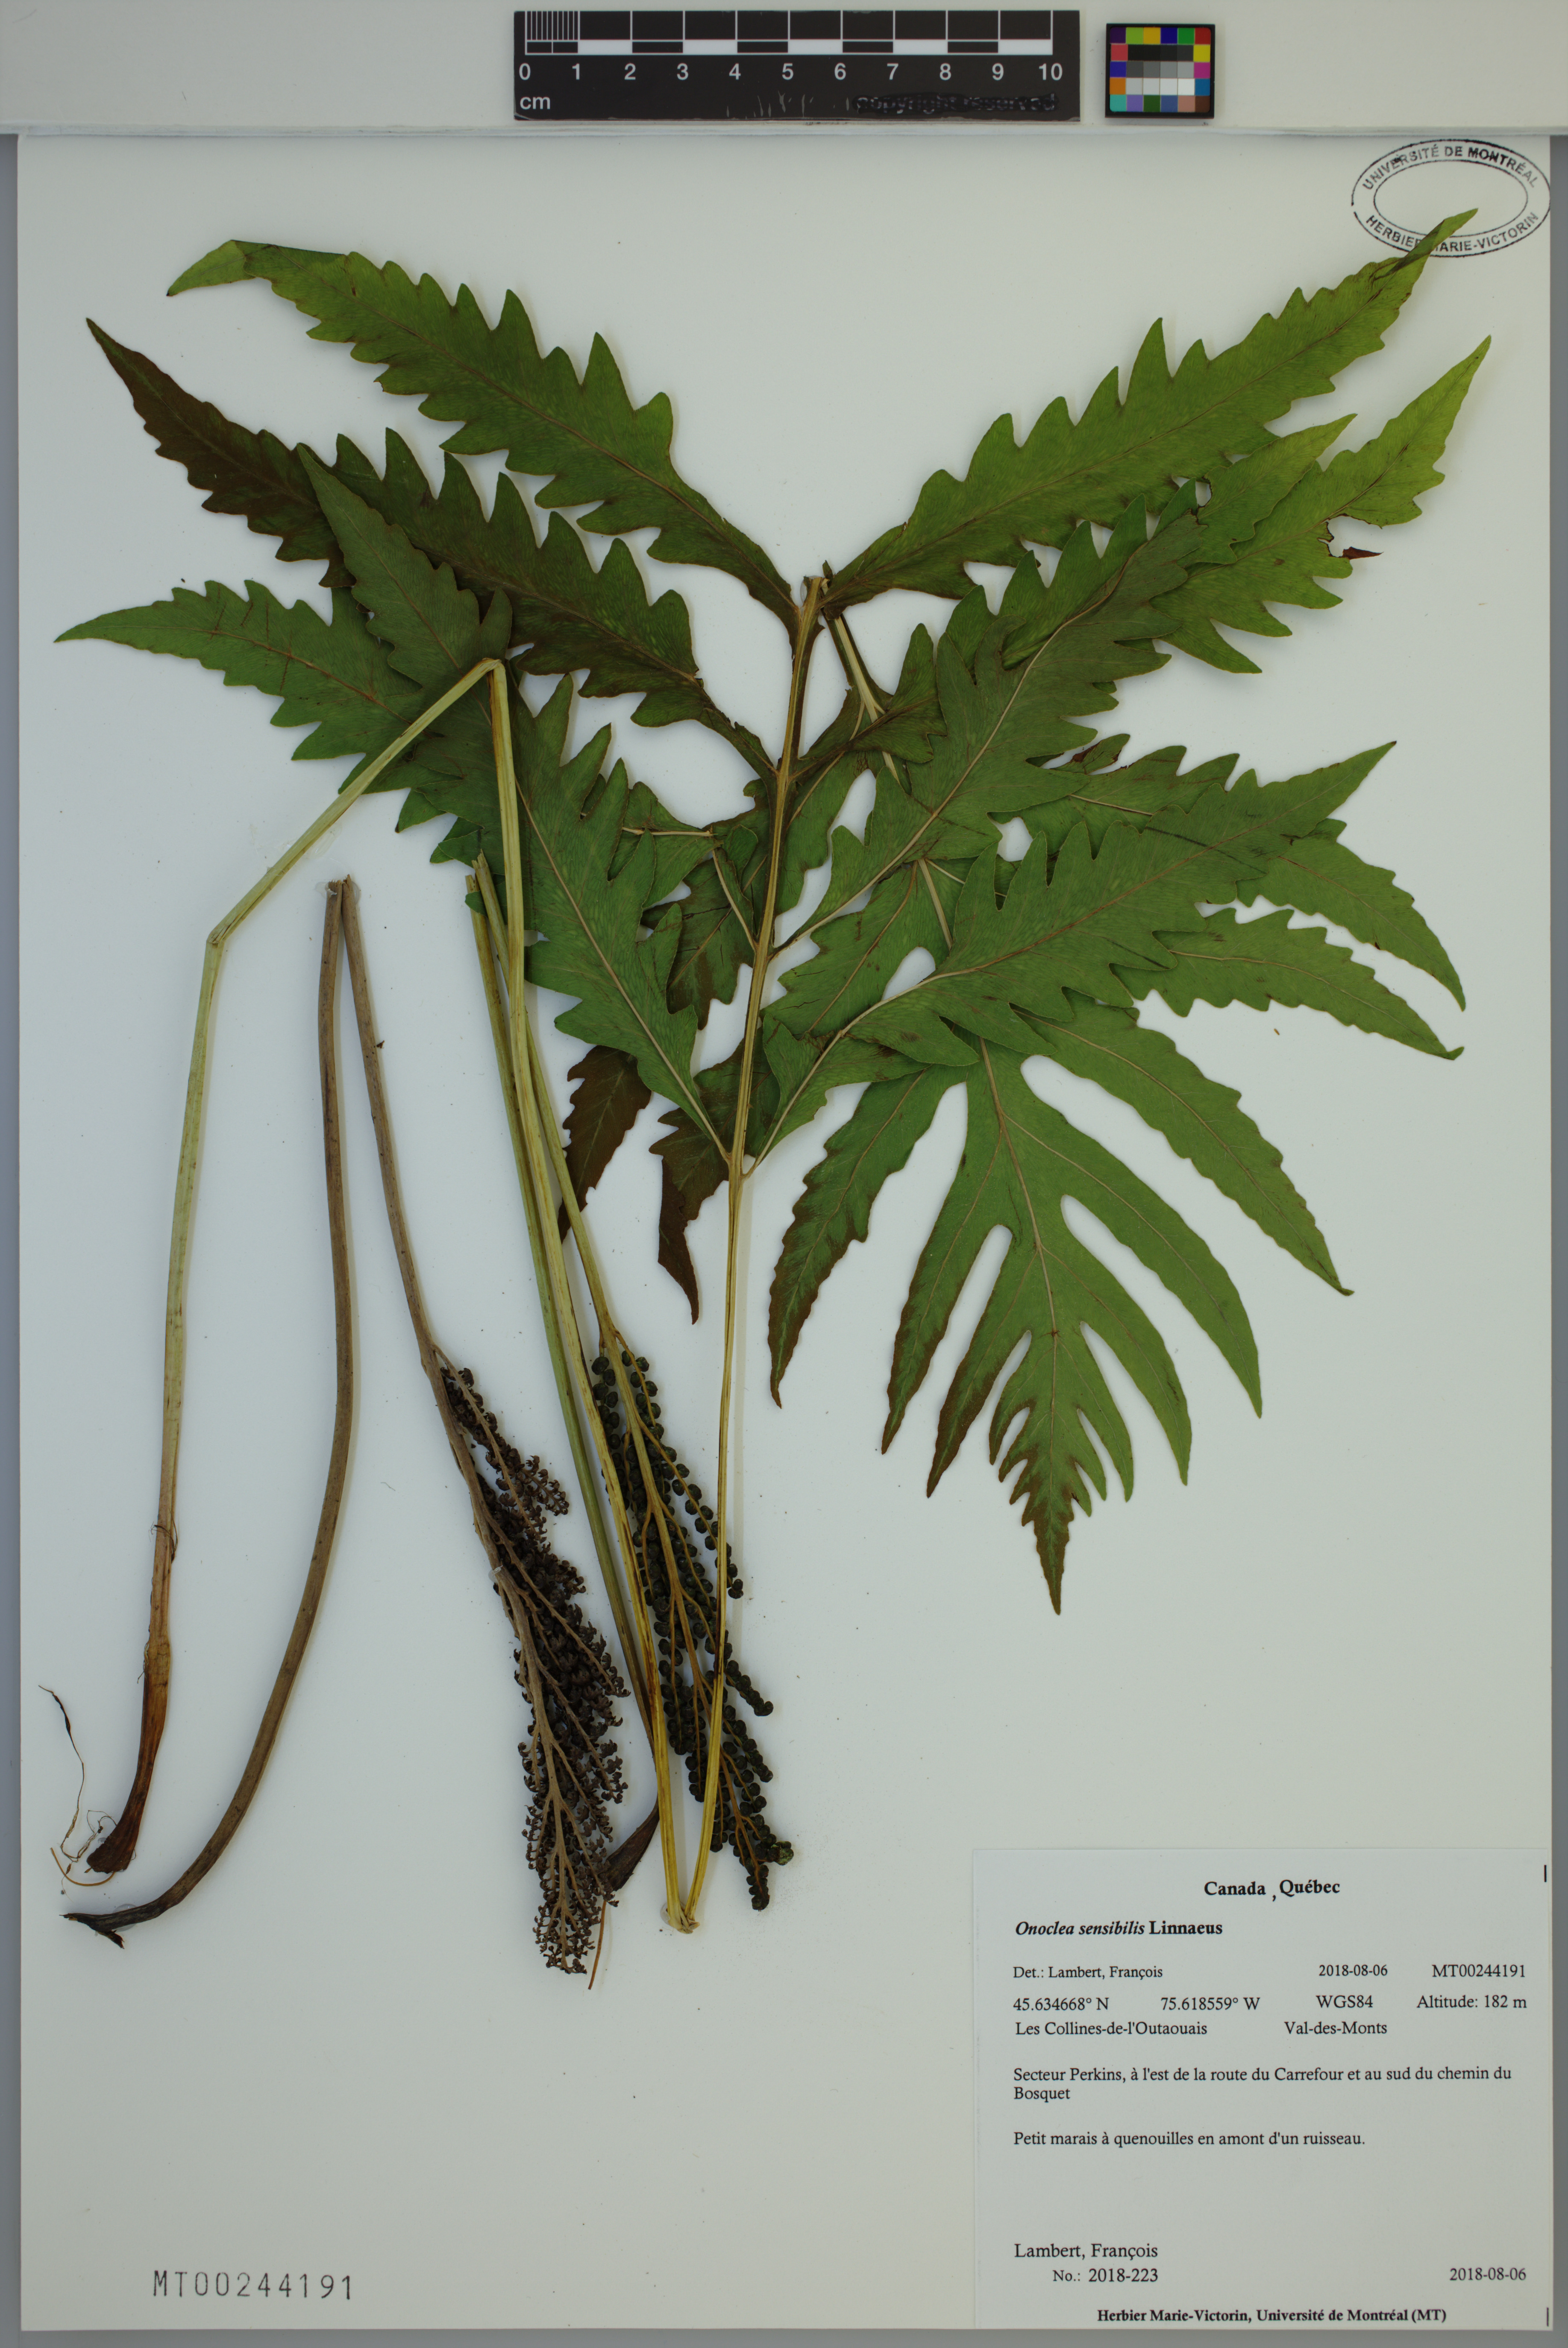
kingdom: Plantae
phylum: Tracheophyta
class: Polypodiopsida
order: Polypodiales
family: Onocleaceae
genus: Onoclea
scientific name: Onoclea sensibilis
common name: Sensitive fern
